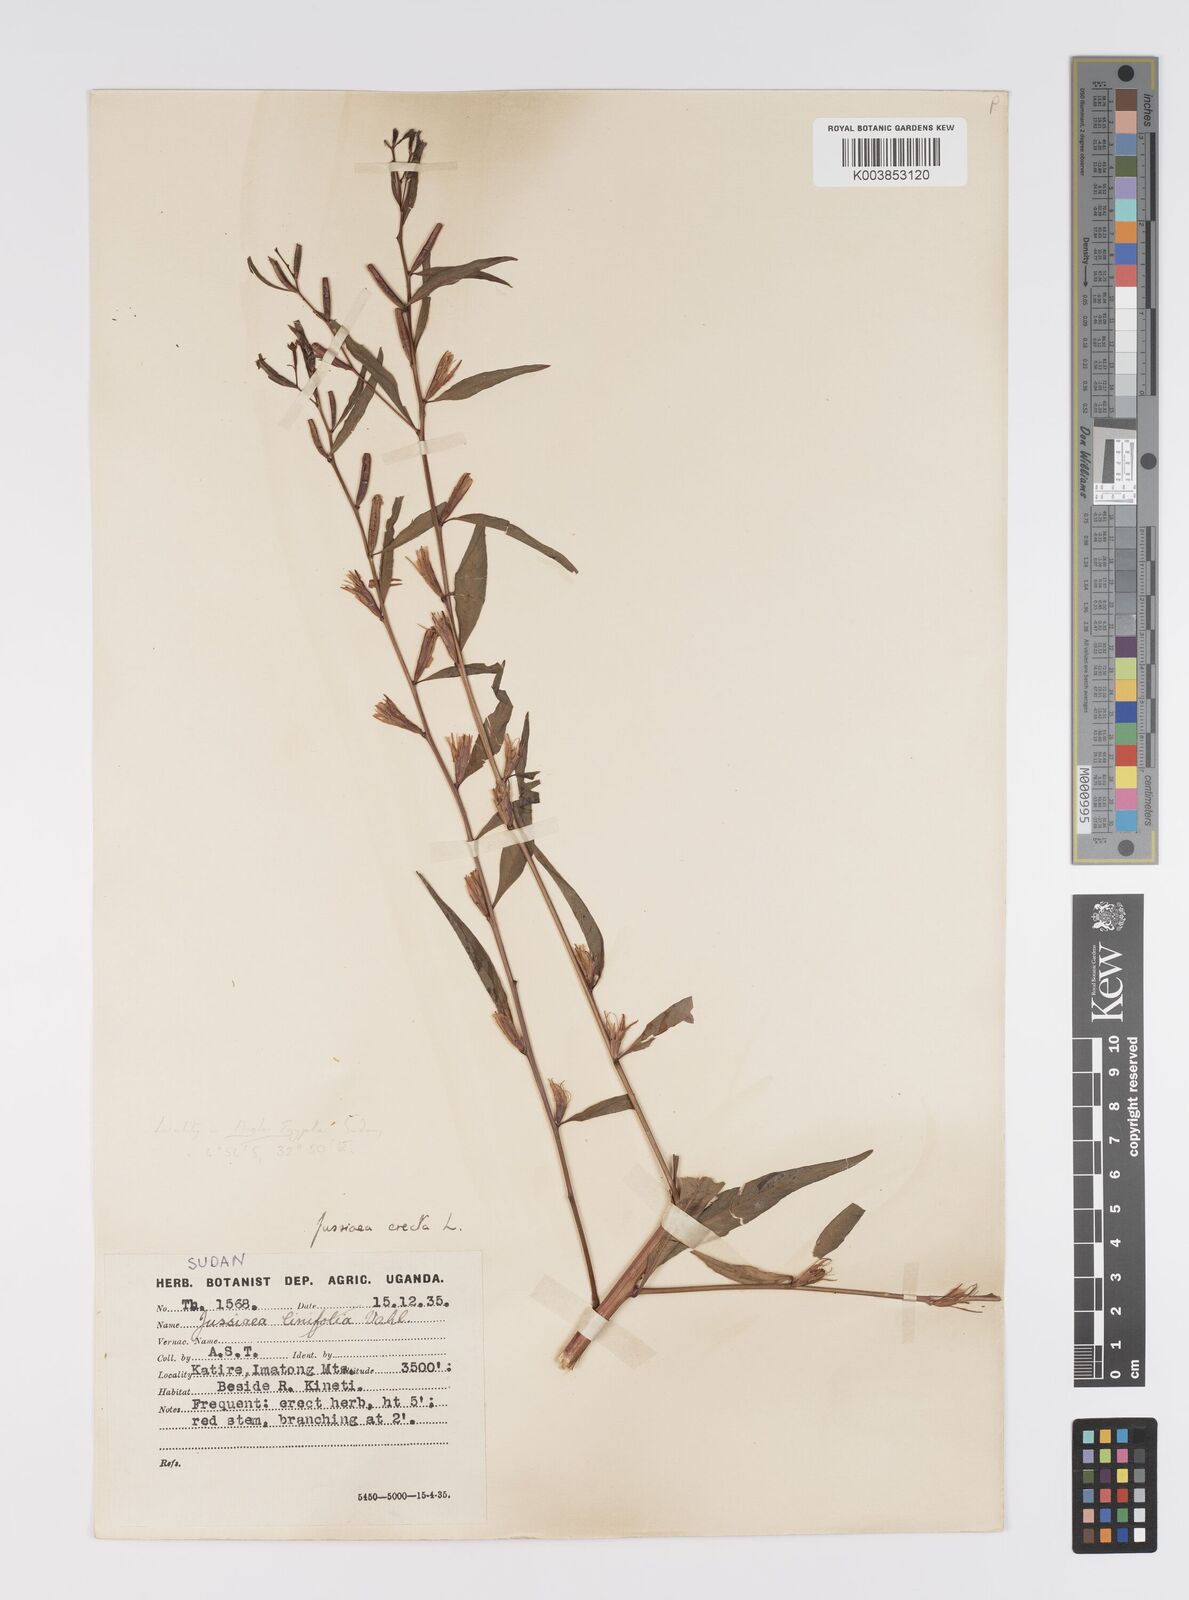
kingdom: Plantae
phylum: Tracheophyta
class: Magnoliopsida
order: Myrtales
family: Onagraceae
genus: Ludwigia
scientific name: Ludwigia erecta
